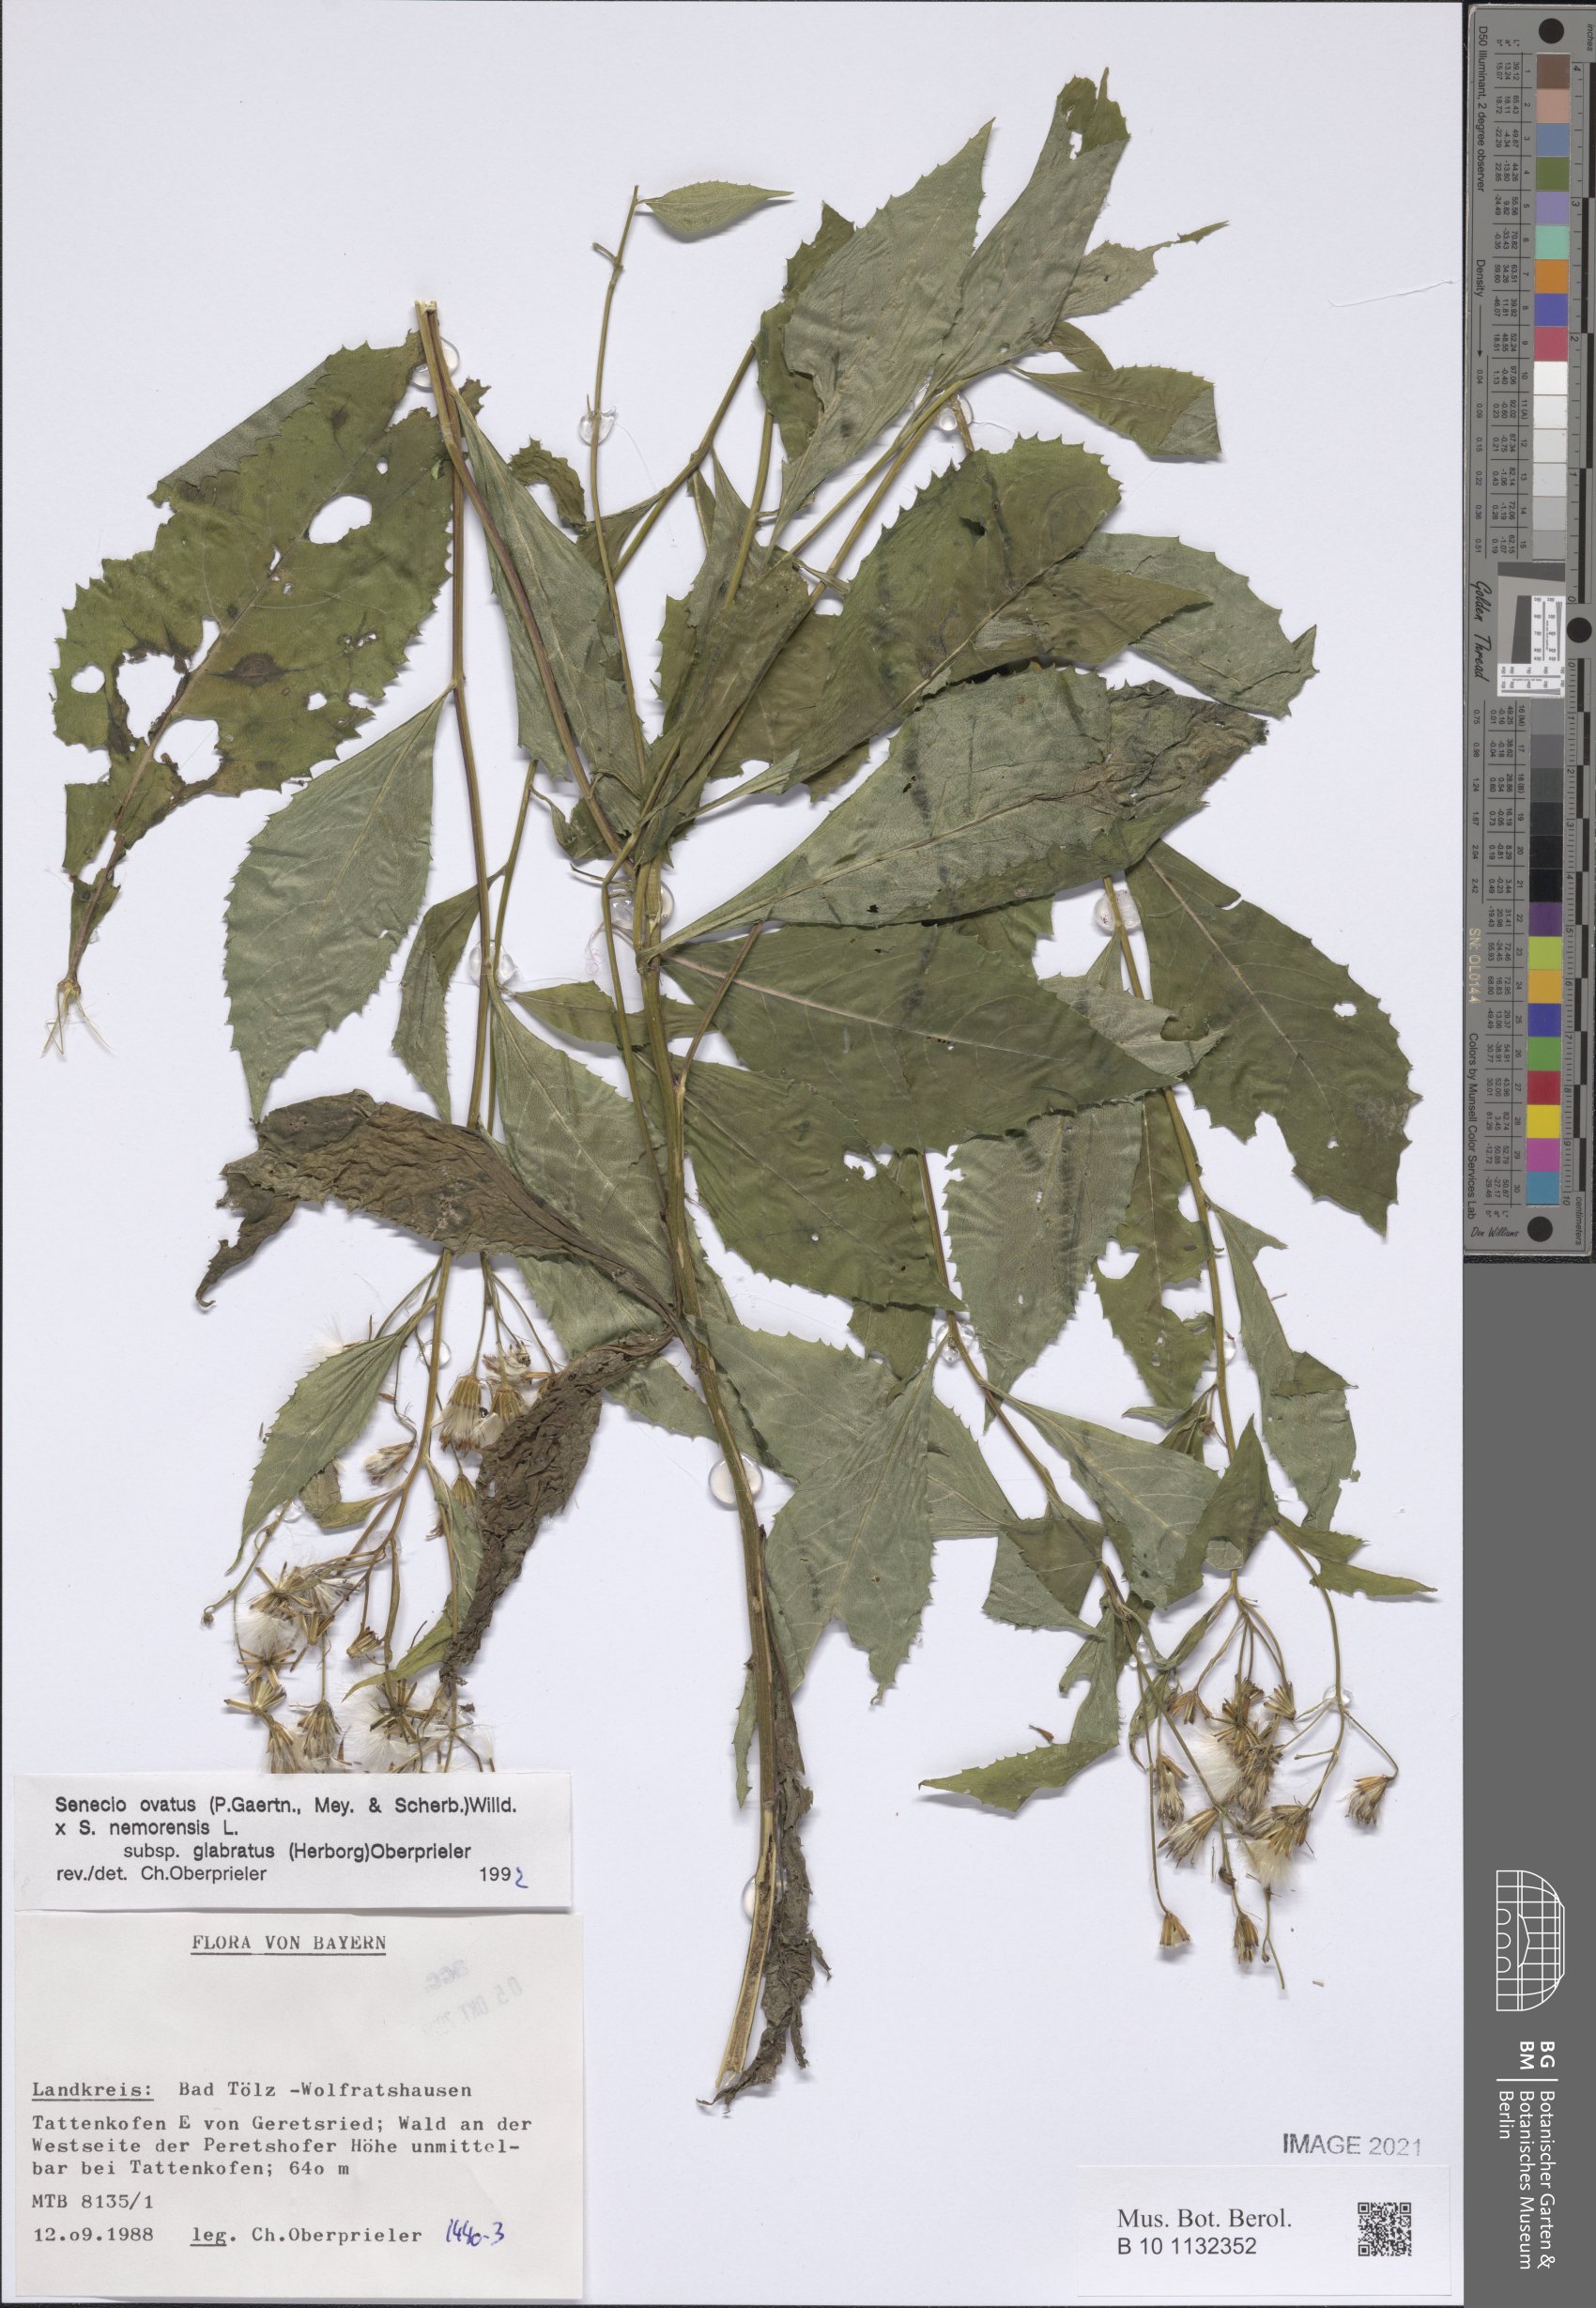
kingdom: Plantae
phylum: Tracheophyta
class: Magnoliopsida
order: Asterales
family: Asteraceae
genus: Senecio
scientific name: Senecio ovatus
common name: Wood ragwort
